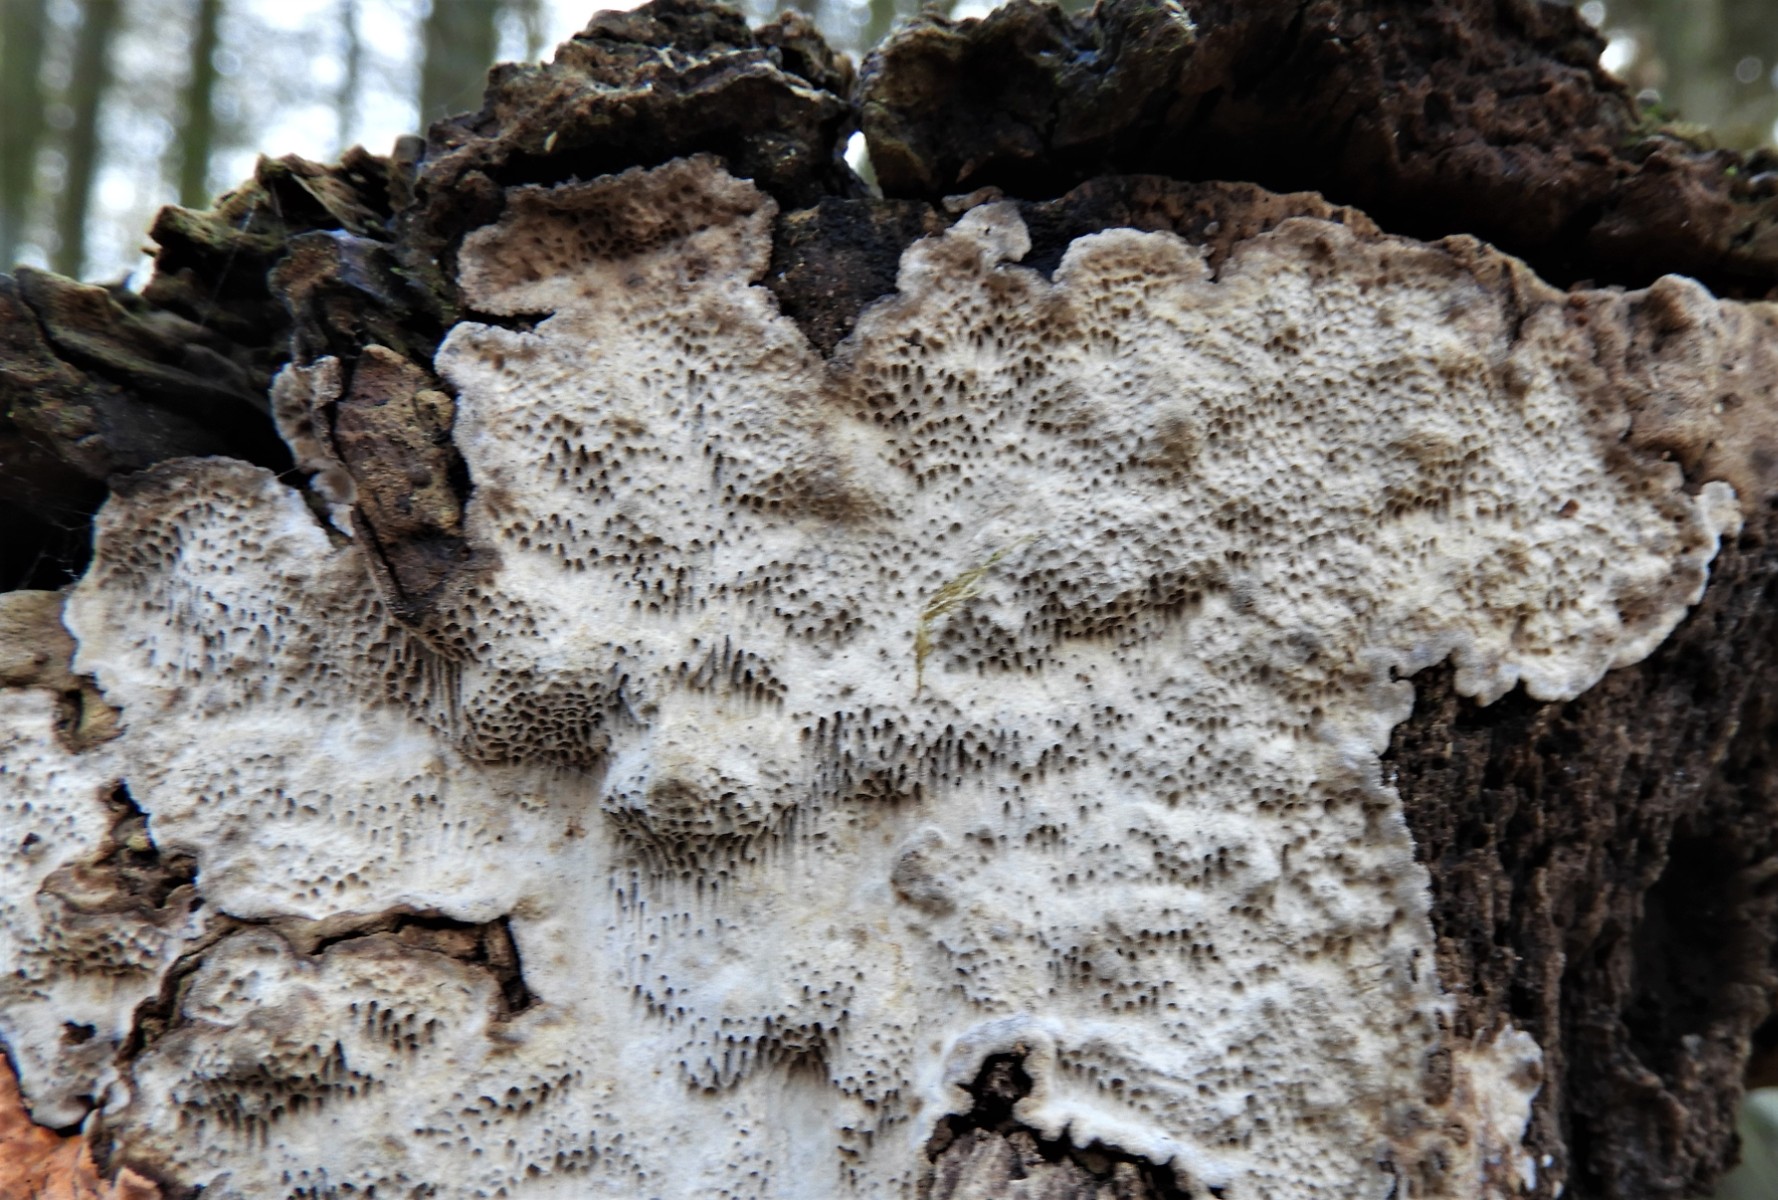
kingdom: Fungi
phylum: Basidiomycota
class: Agaricomycetes
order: Polyporales
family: Polyporaceae
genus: Podofomes
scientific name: Podofomes mollis
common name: blød begporesvamp
